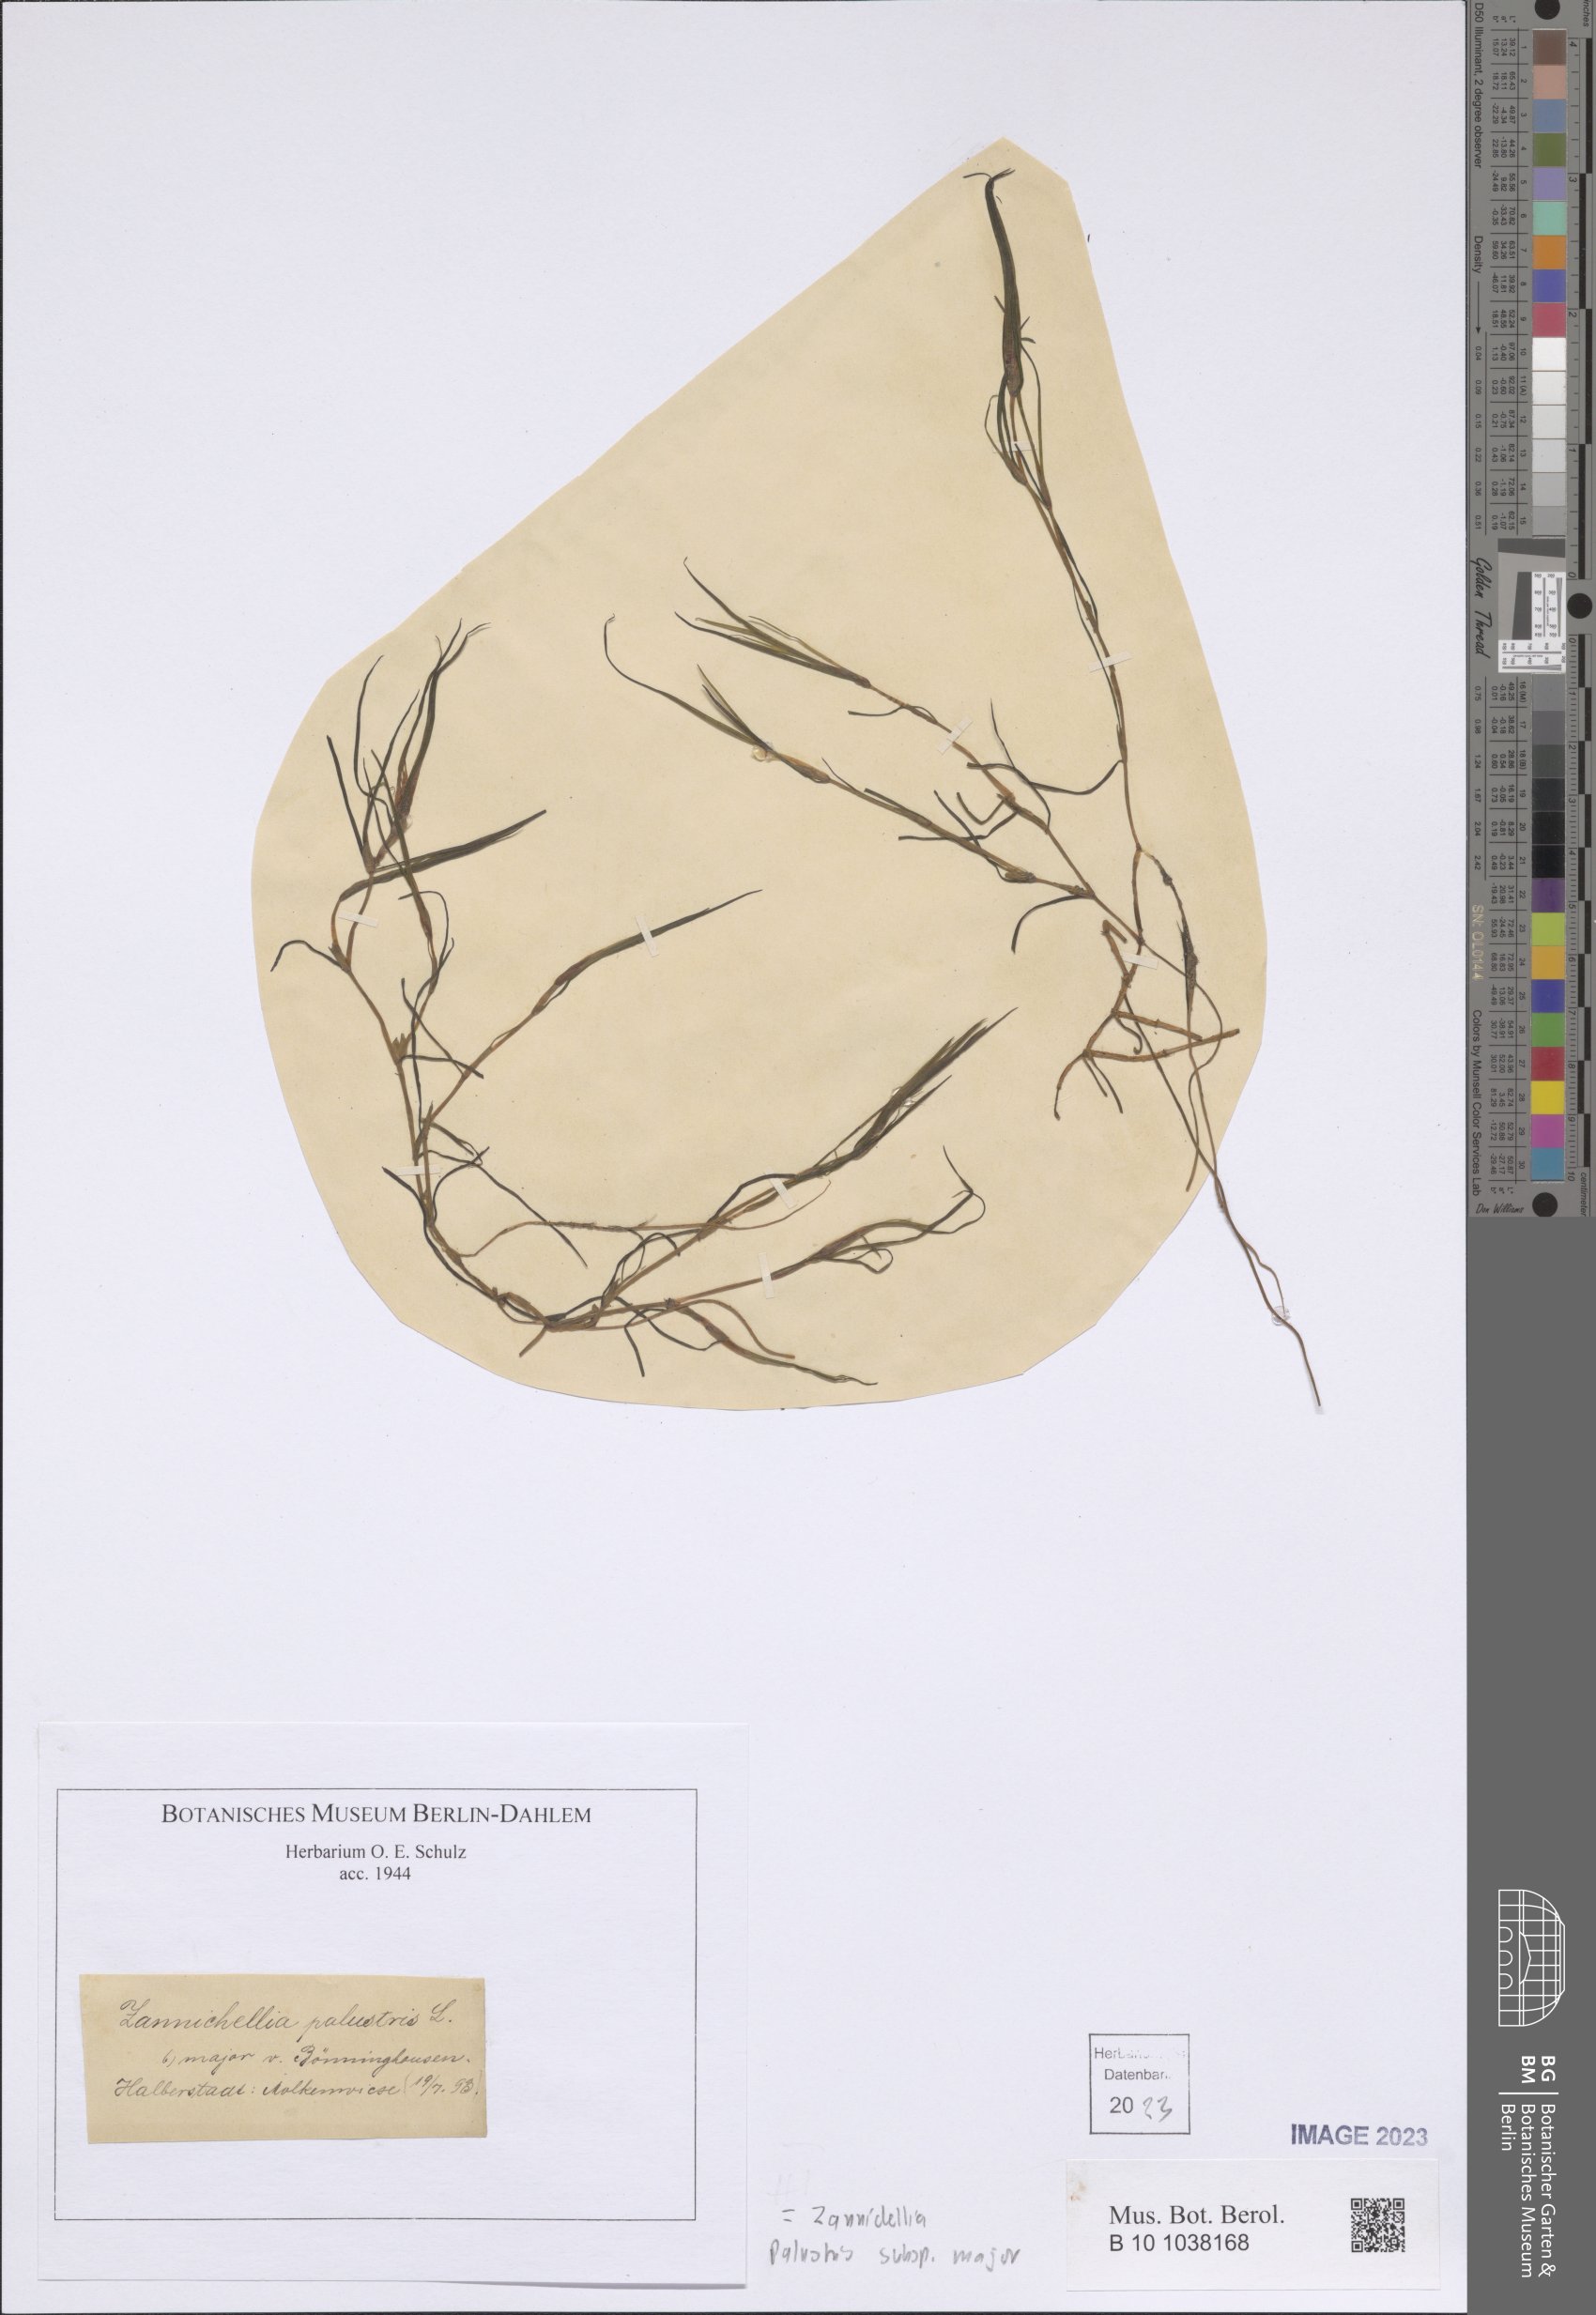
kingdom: Plantae
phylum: Tracheophyta
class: Liliopsida
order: Alismatales
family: Potamogetonaceae
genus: Zannichellia
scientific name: Zannichellia palustris
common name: Horned pondweed
